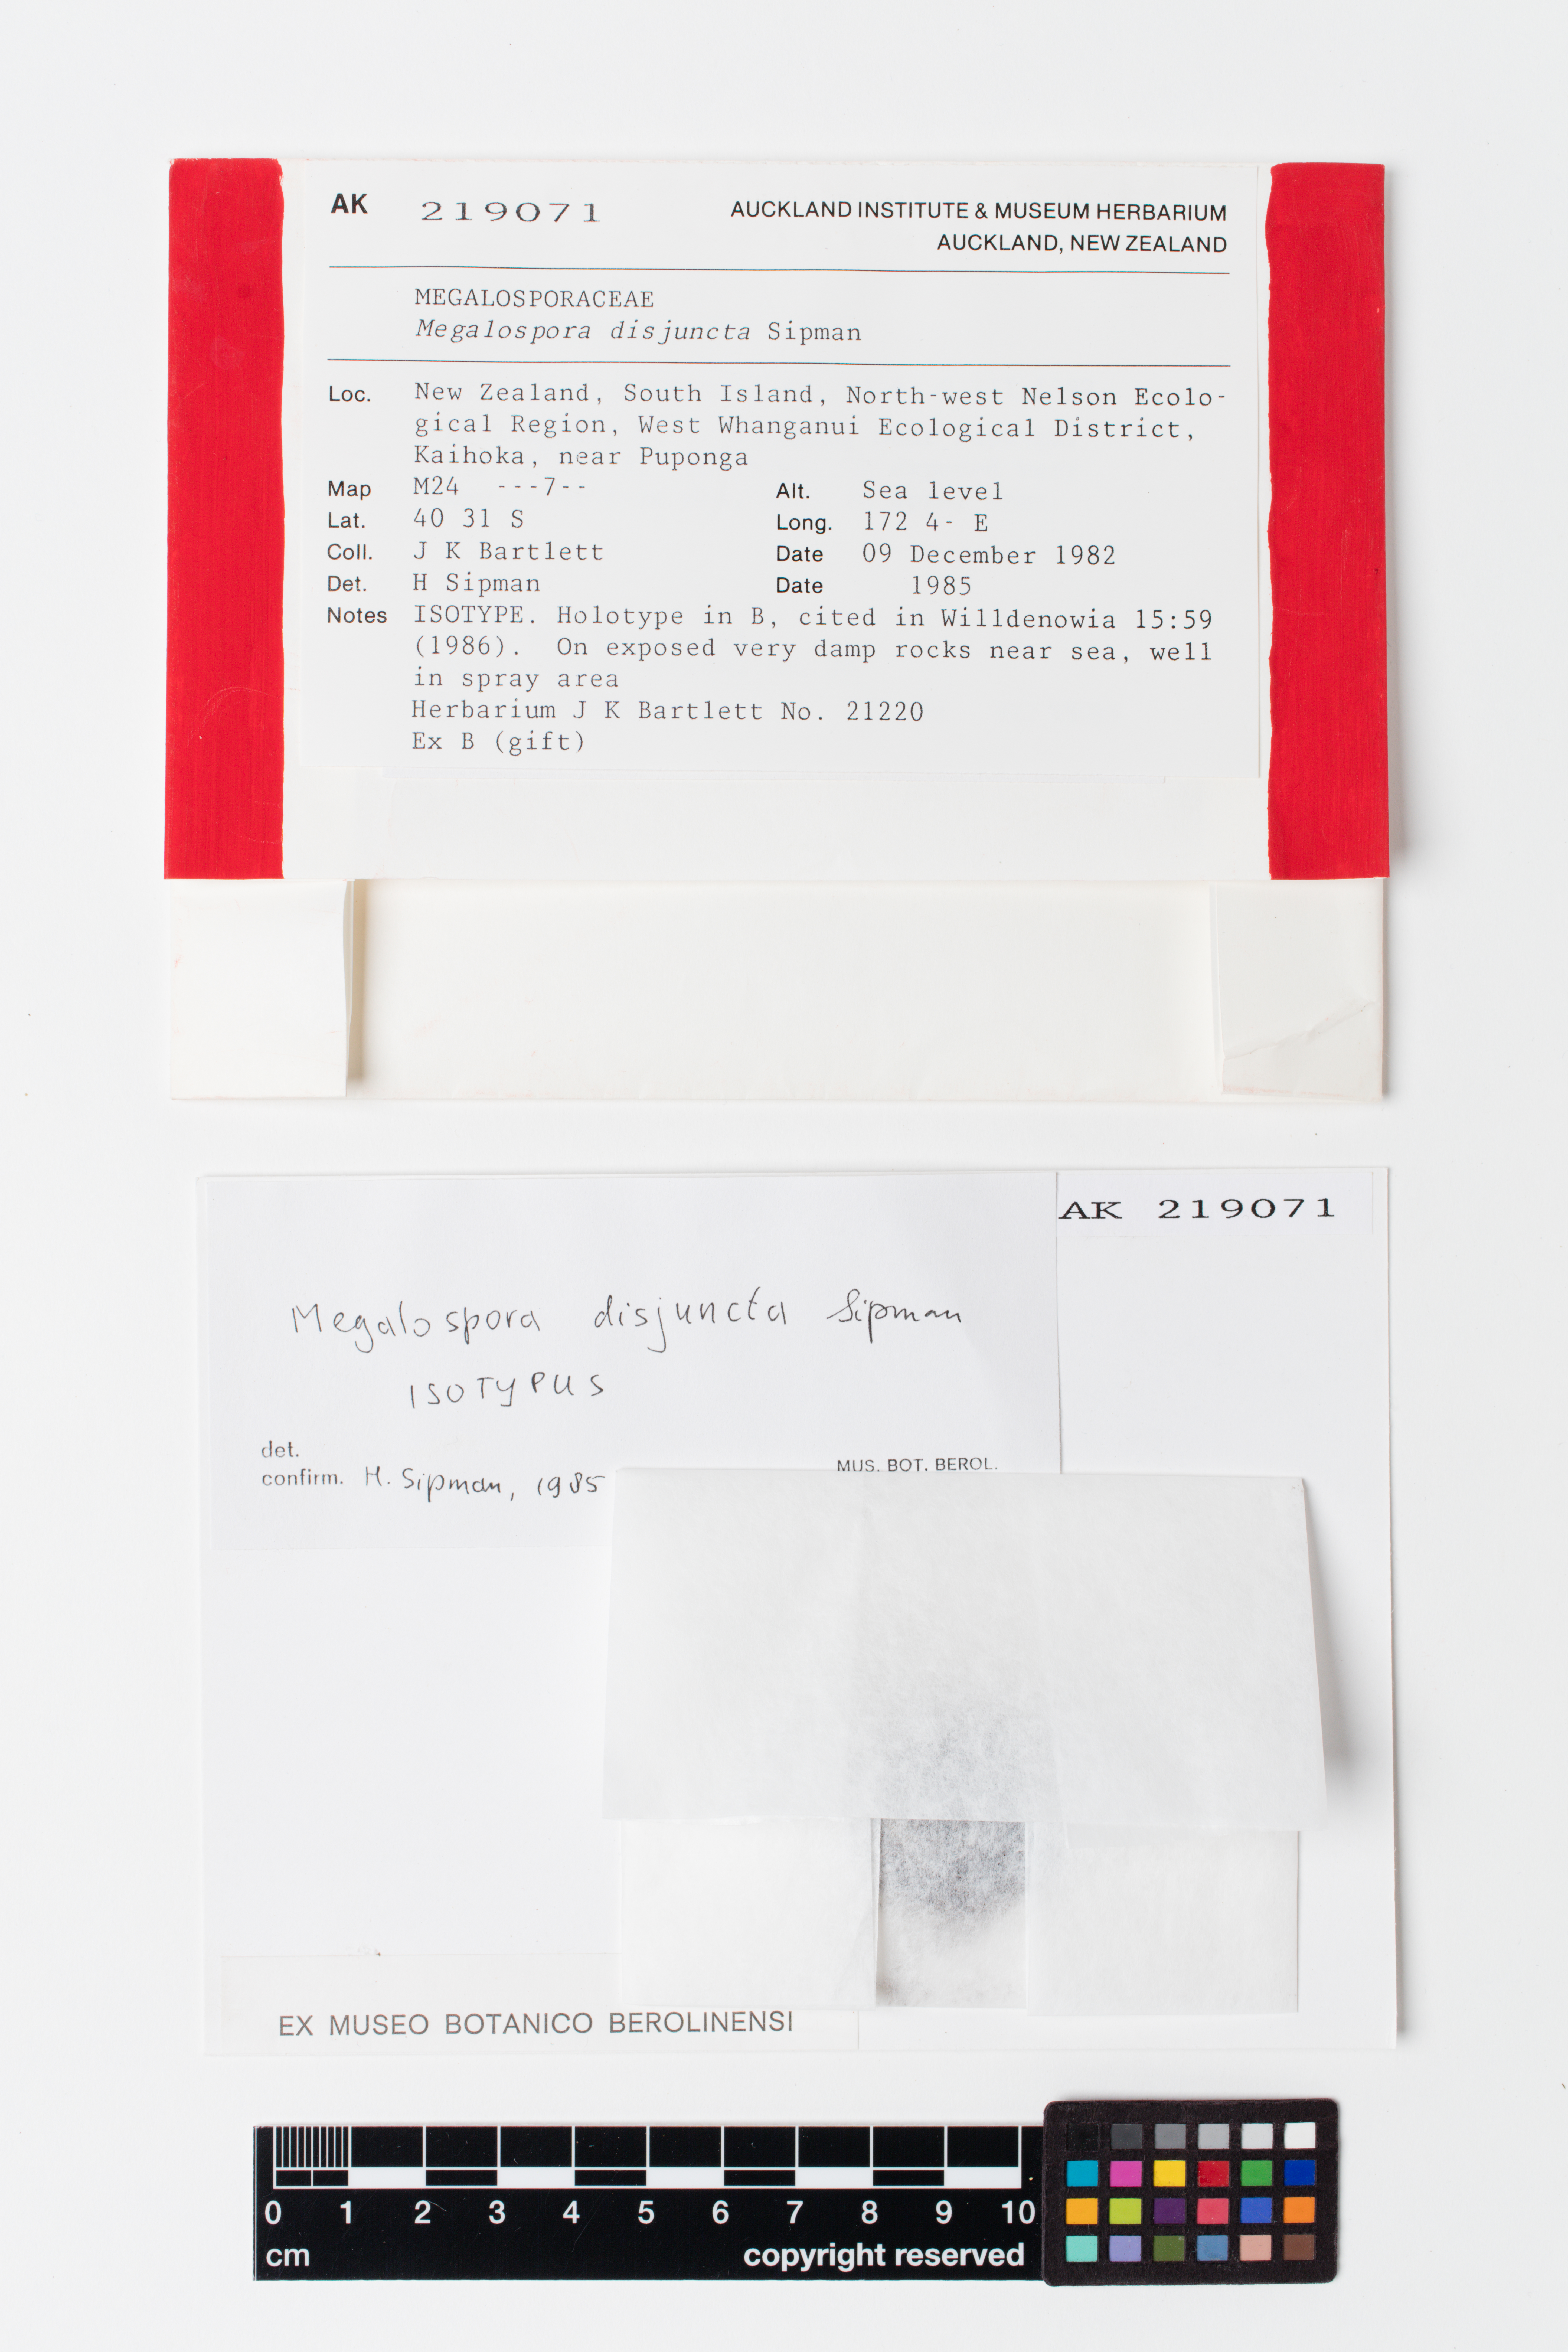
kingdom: Fungi
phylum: Ascomycota
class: Lecanoromycetes
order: Teloschistales
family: Megalosporaceae
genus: Megalospora
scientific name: Megalospora disjuncta
